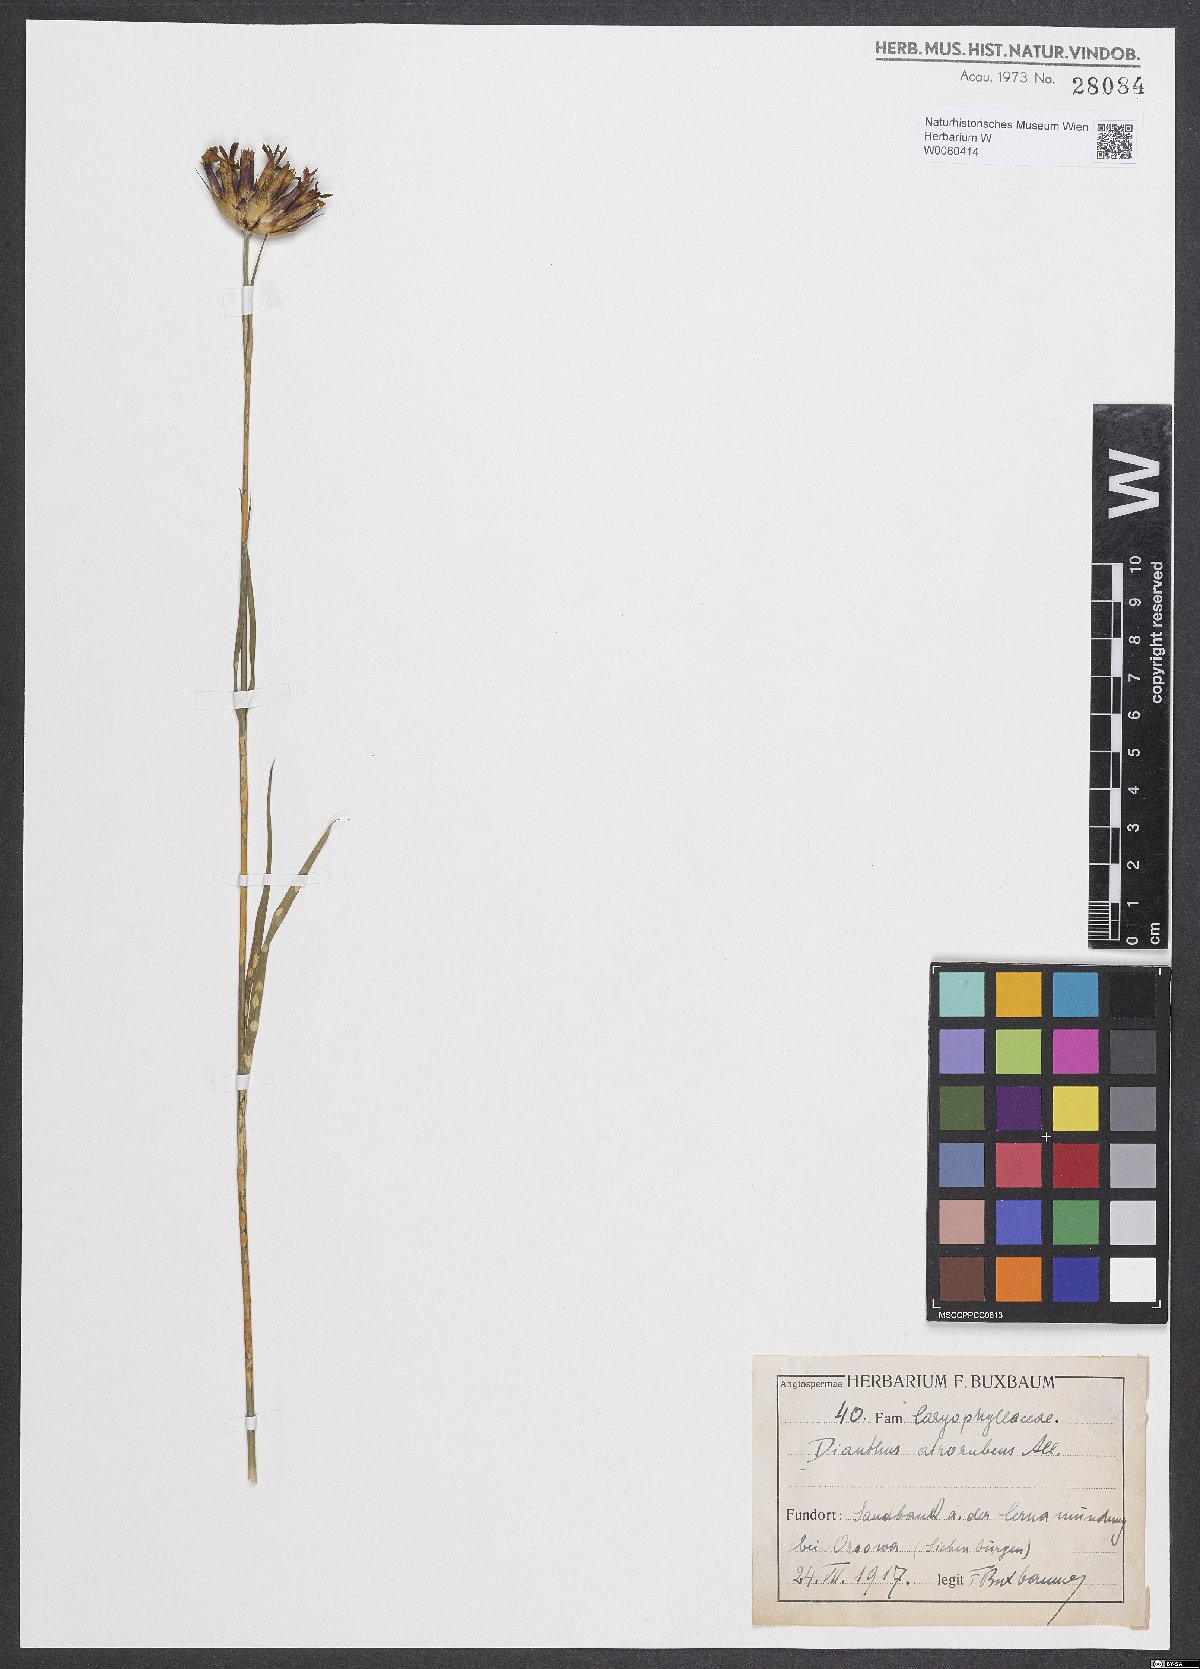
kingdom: Plantae
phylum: Tracheophyta
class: Magnoliopsida
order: Caryophyllales
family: Caryophyllaceae
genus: Dianthus
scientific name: Dianthus carthusianorum
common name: Carthusian pink
